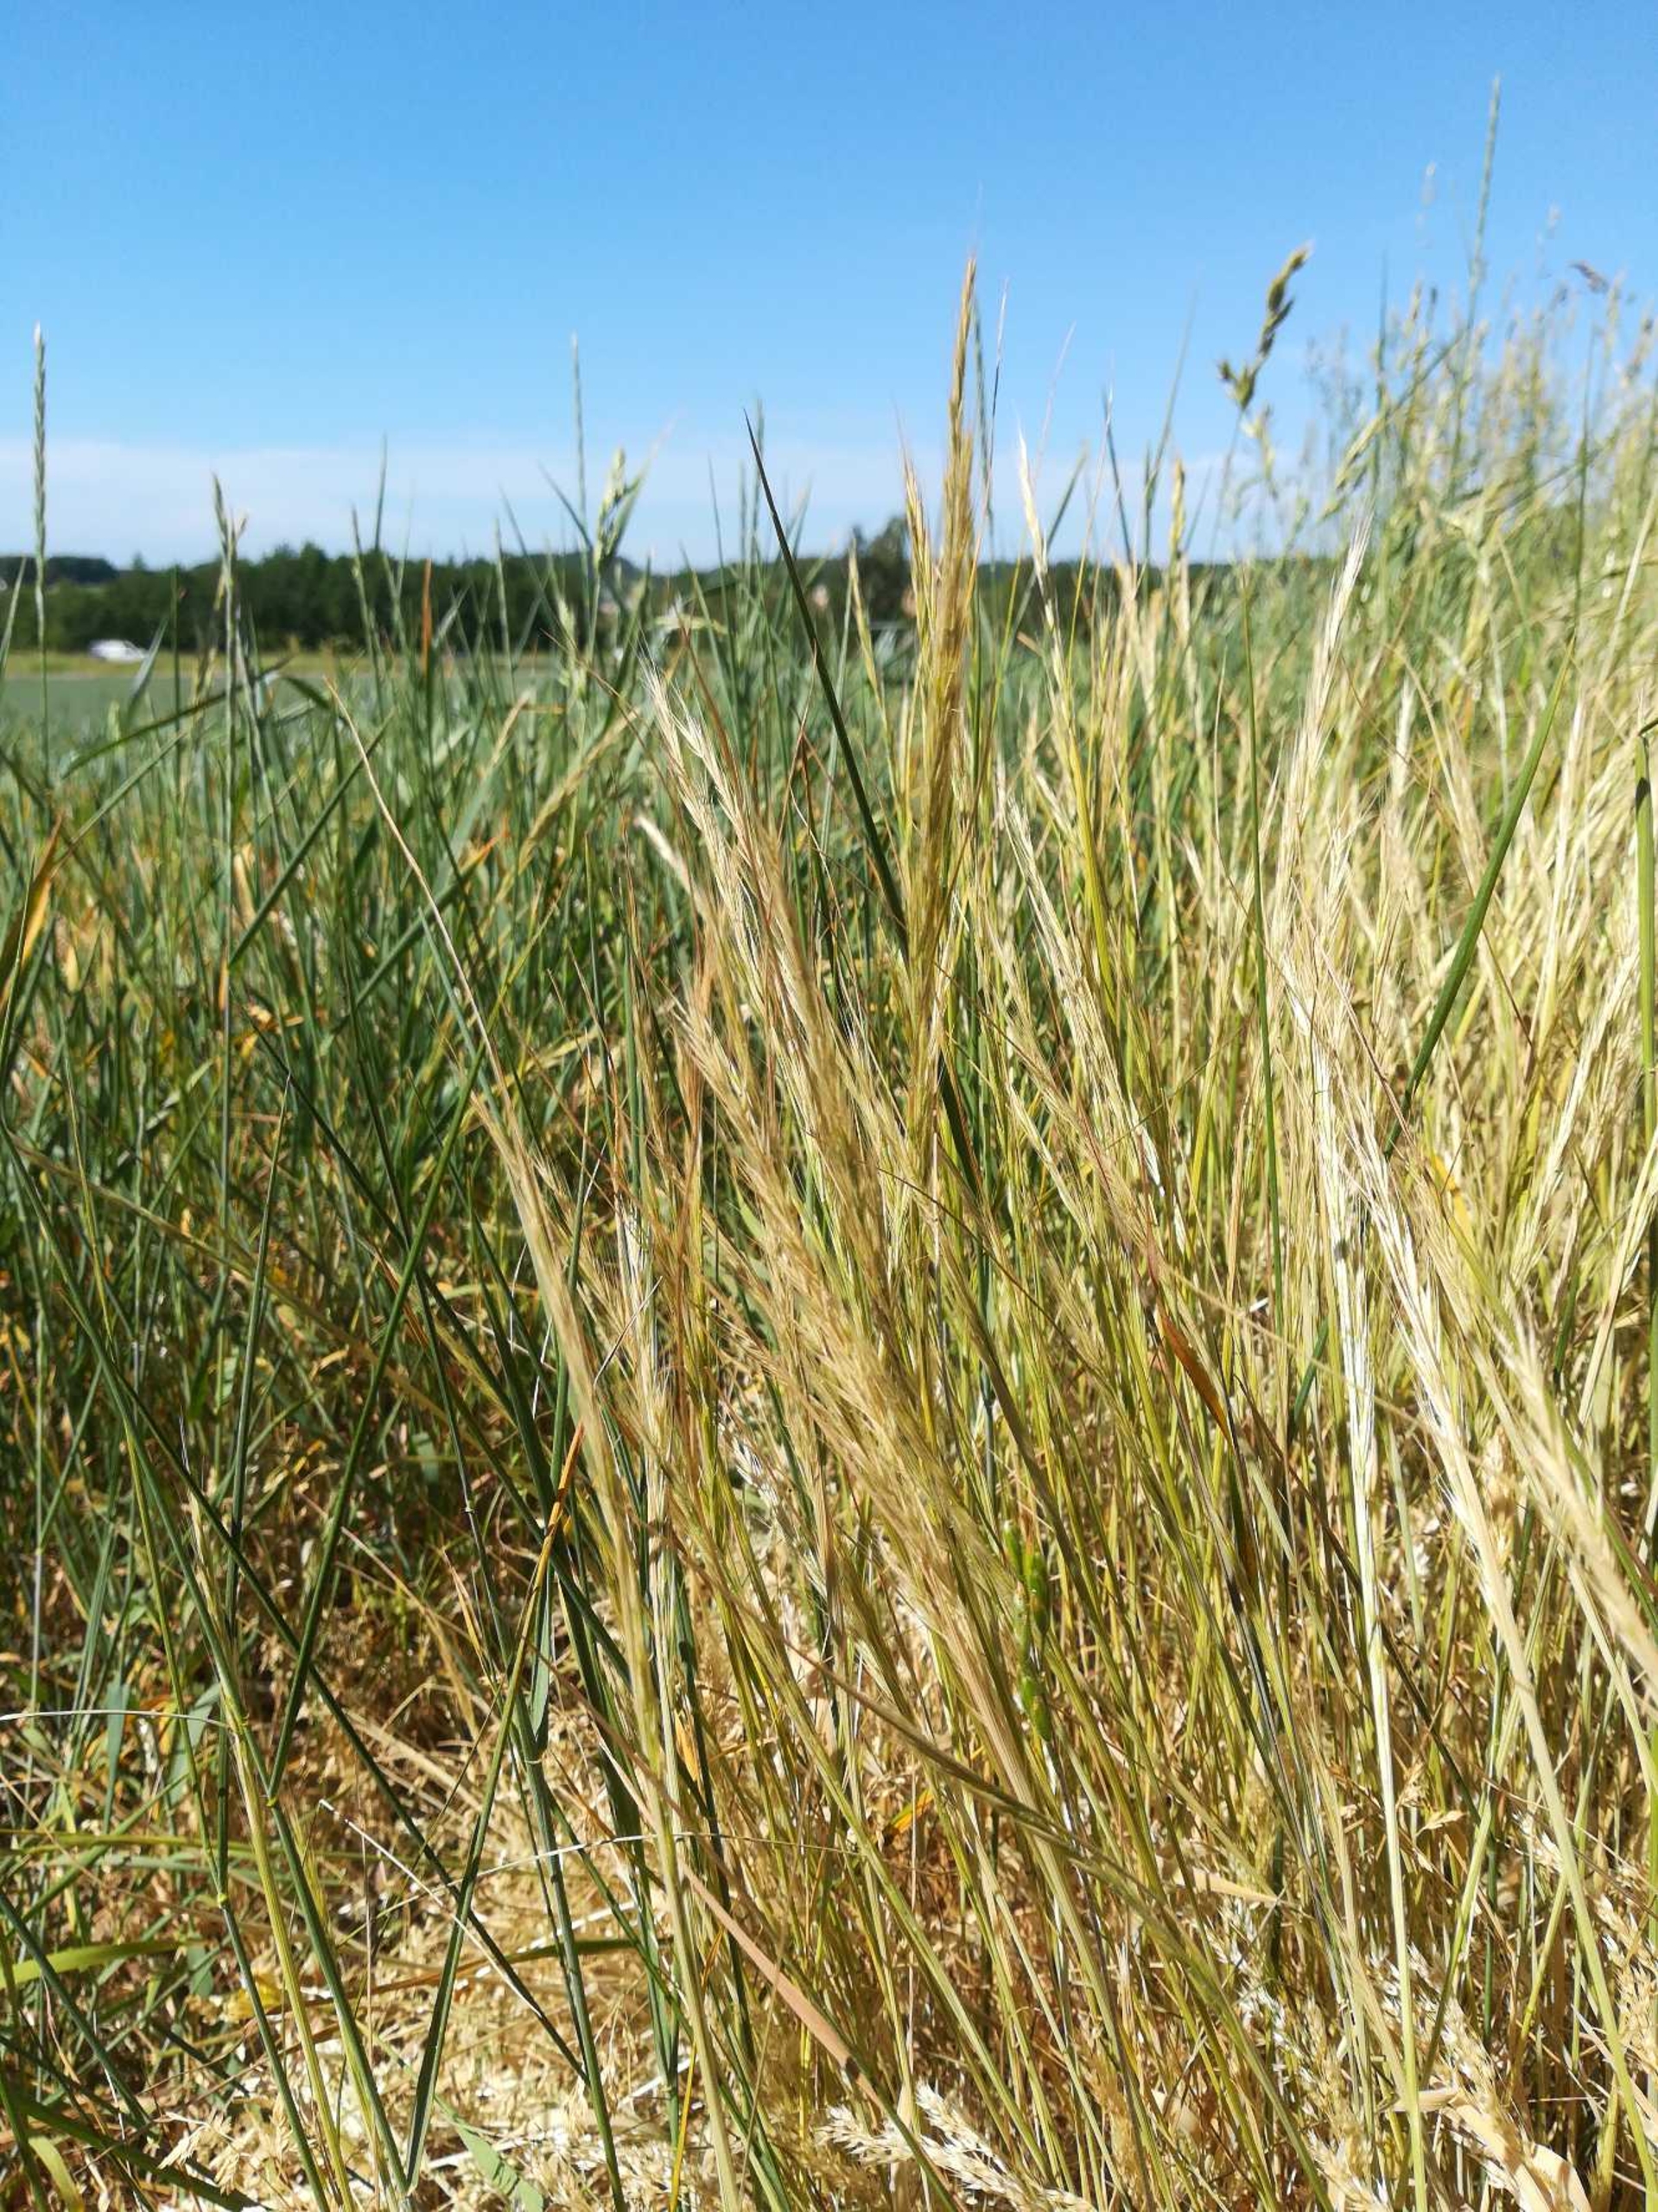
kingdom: Plantae
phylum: Tracheophyta
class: Liliopsida
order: Poales
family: Poaceae
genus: Festuca
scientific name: Festuca myuros
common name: Stor væselhale
